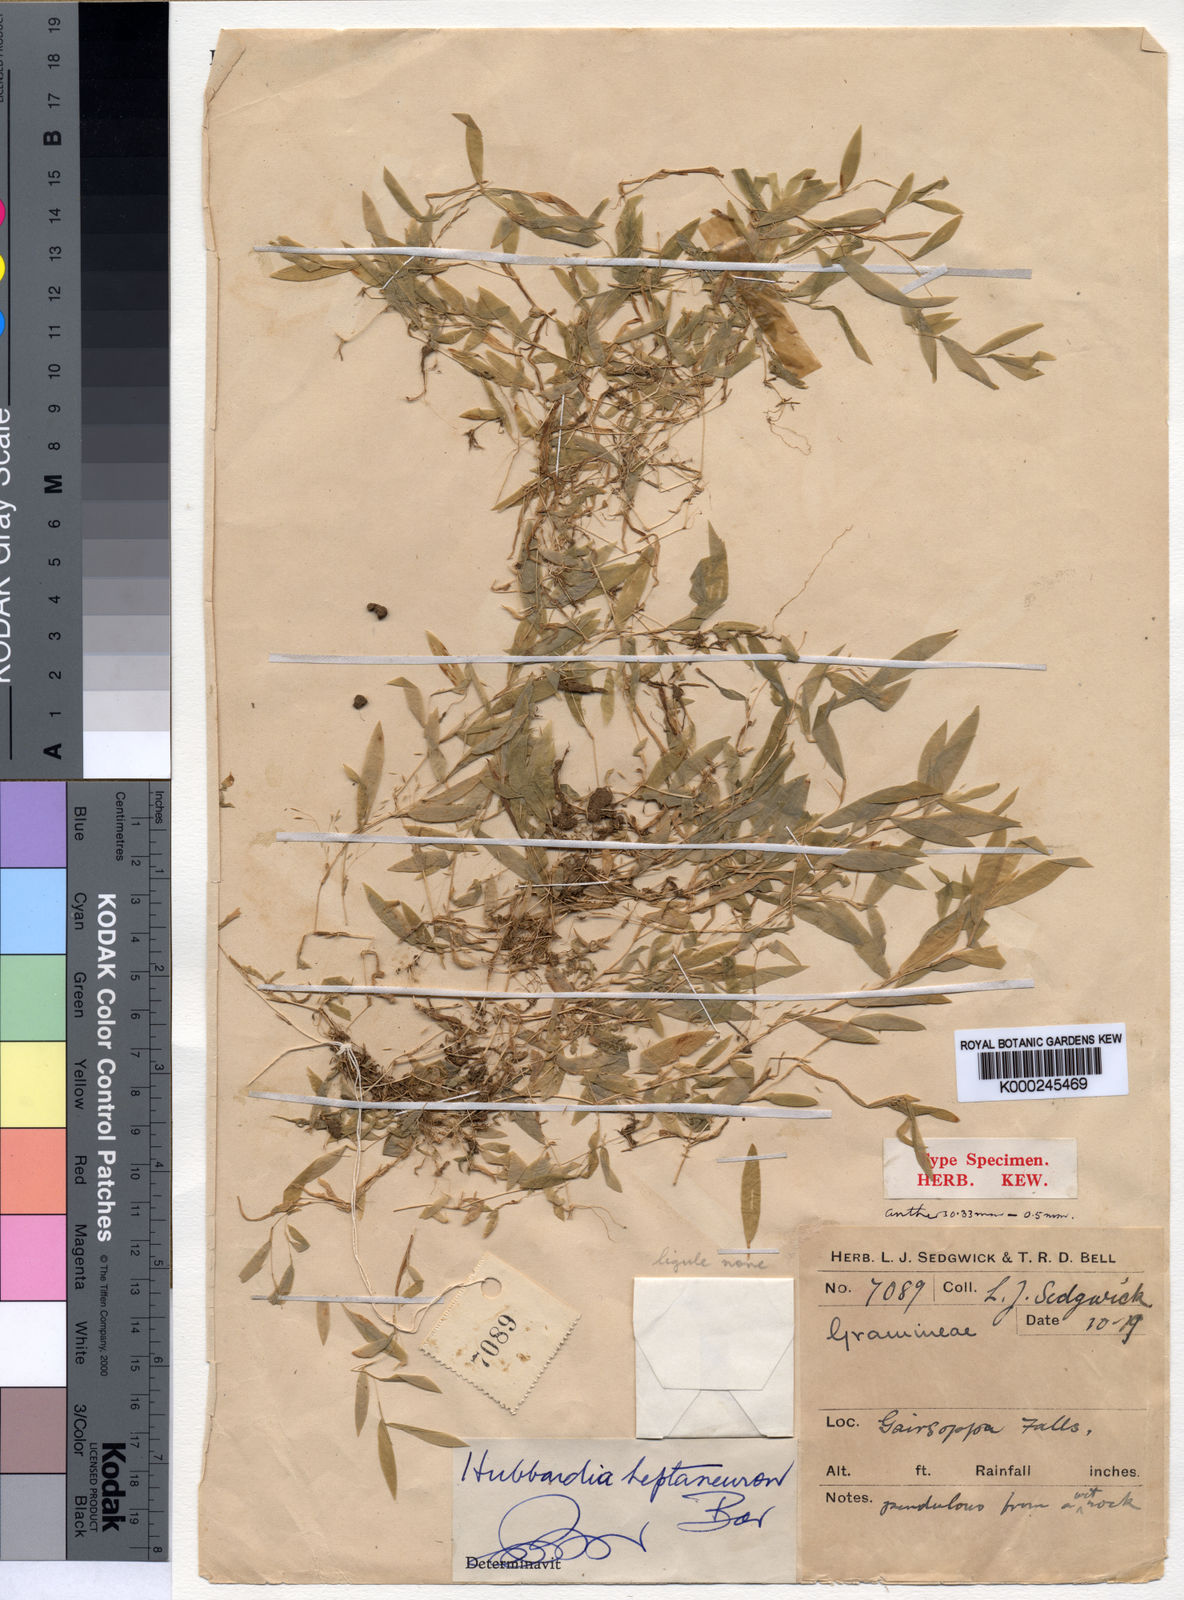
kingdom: Plantae
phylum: Tracheophyta
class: Liliopsida
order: Poales
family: Poaceae
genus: Hubbardia
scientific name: Hubbardia heptaneuron
